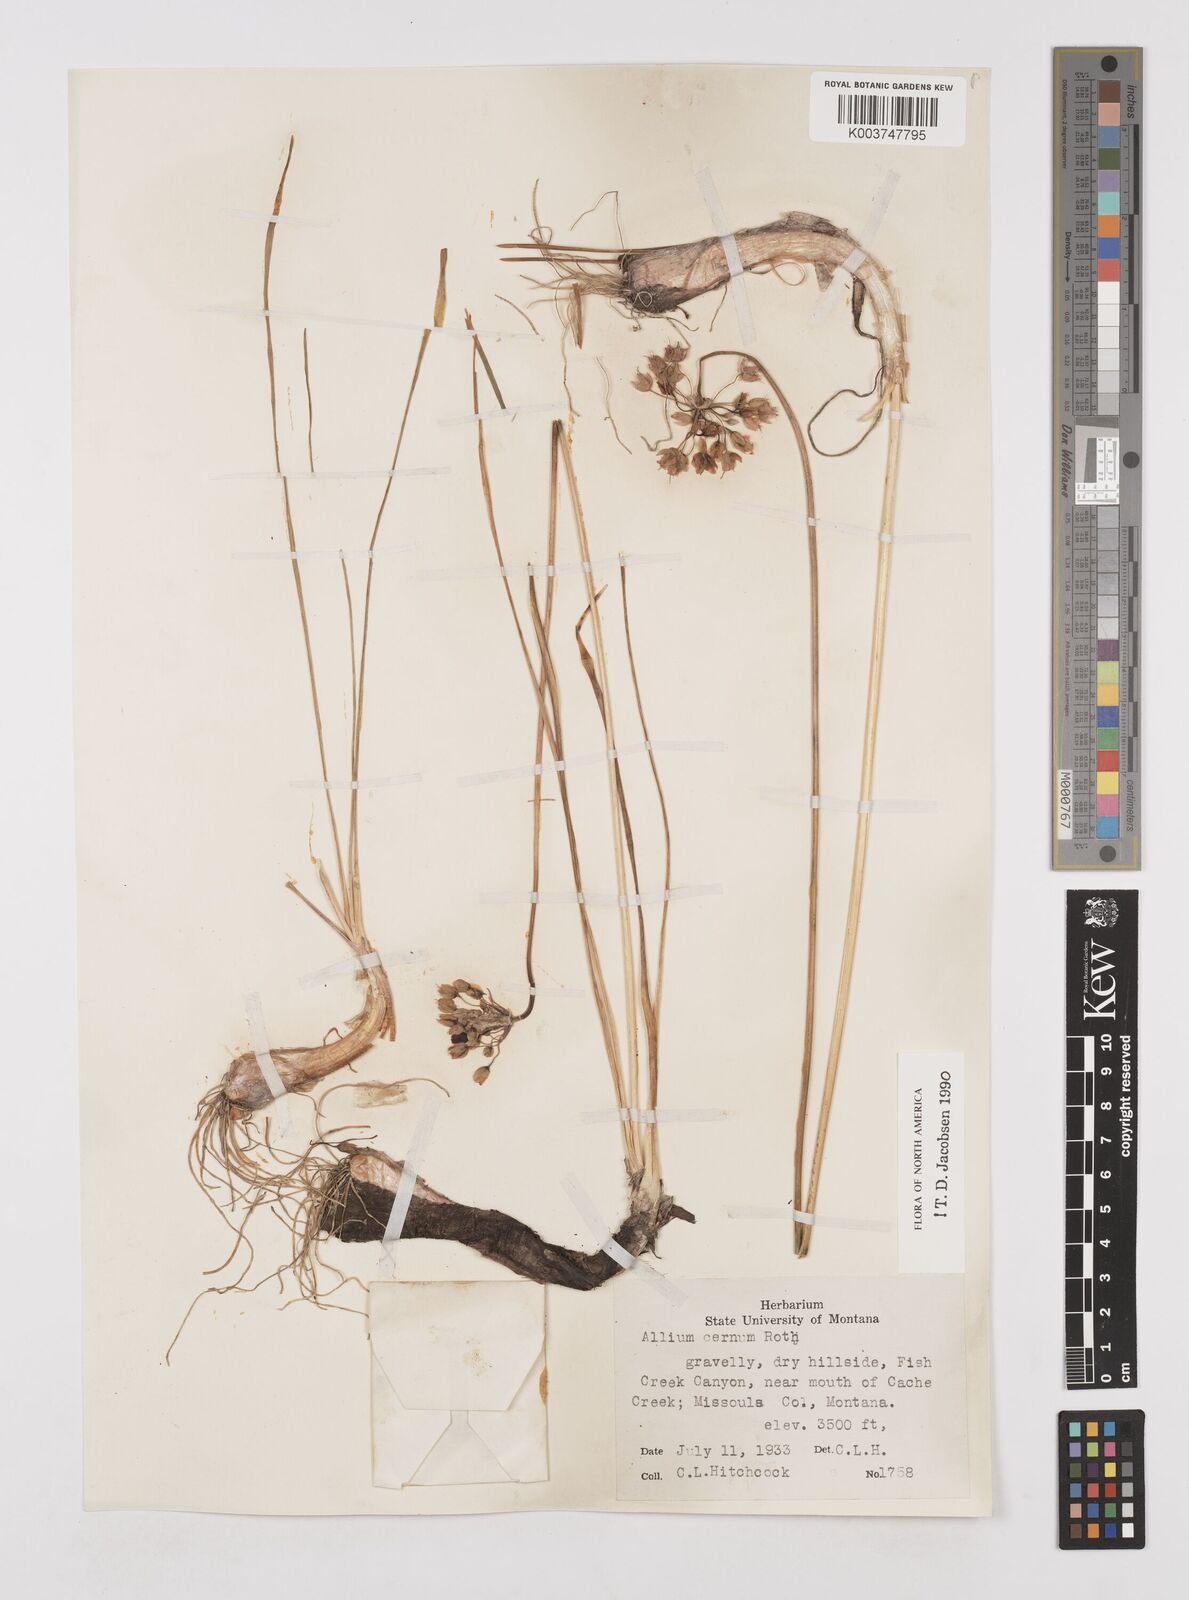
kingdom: Plantae
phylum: Tracheophyta
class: Liliopsida
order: Asparagales
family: Amaryllidaceae
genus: Allium
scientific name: Allium cernuum
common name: Nodding onion
